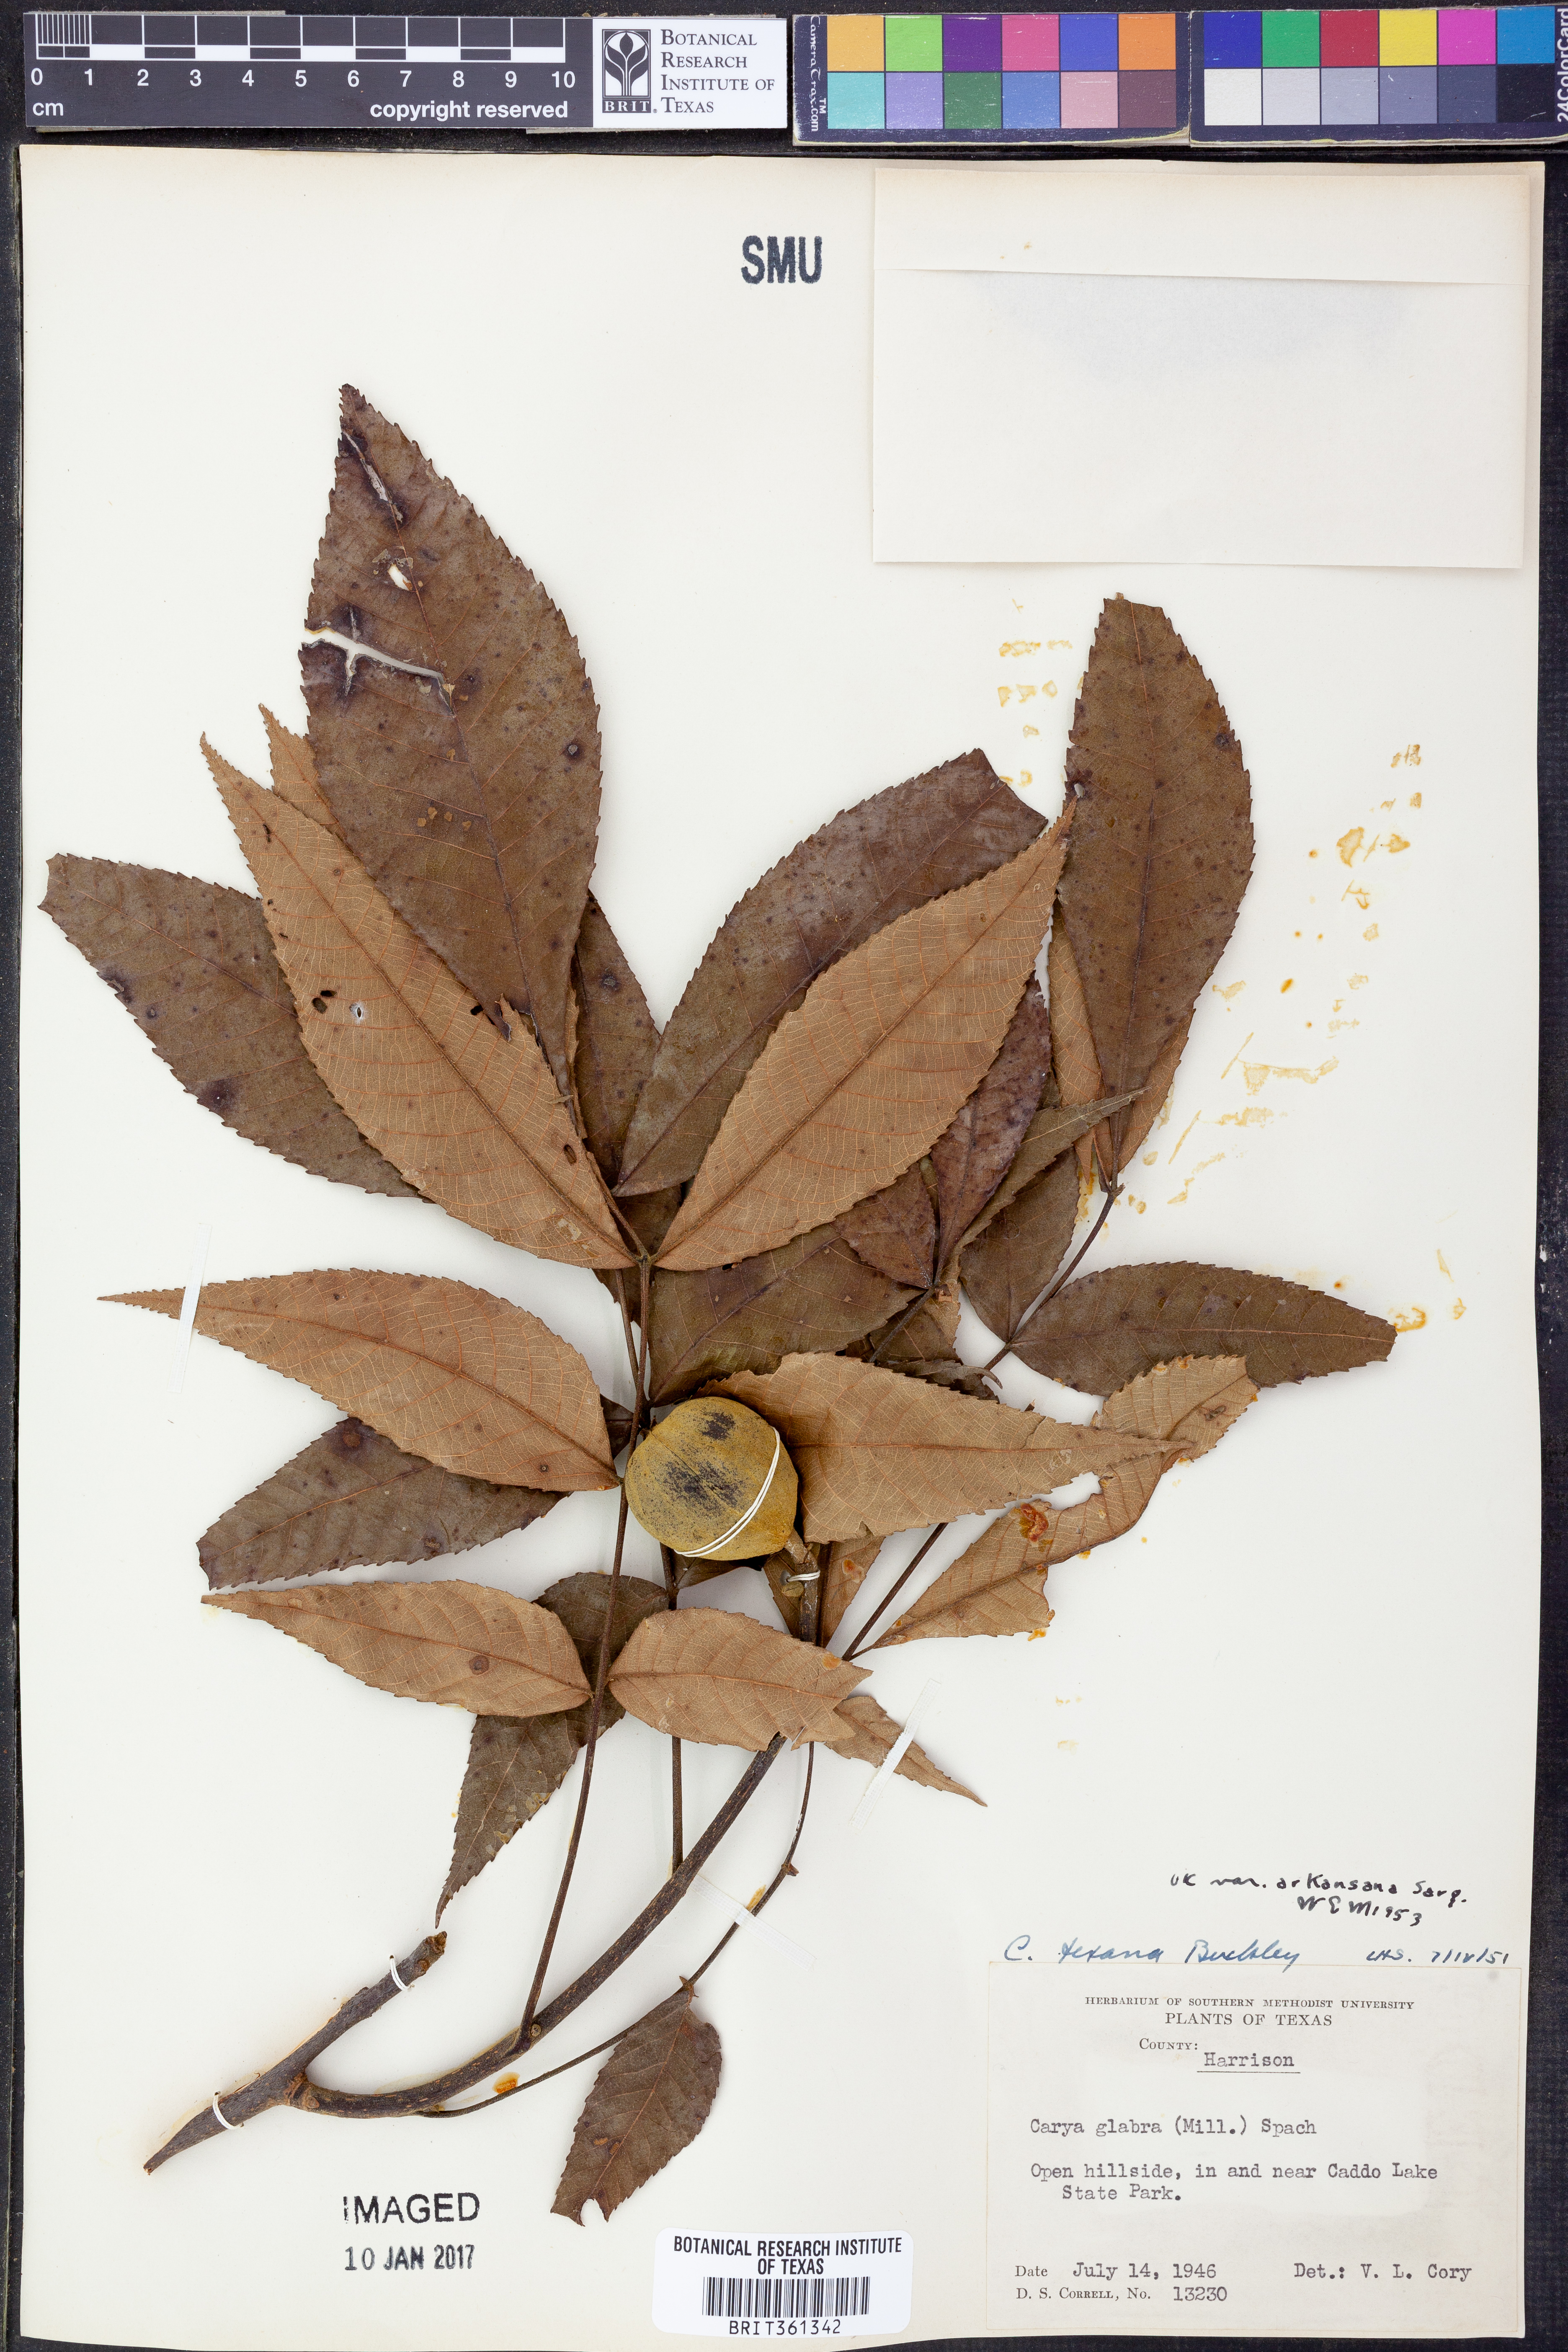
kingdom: Plantae
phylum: Tracheophyta
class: Magnoliopsida
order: Fagales
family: Juglandaceae
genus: Carya
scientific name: Carya texana
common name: Black hickory
